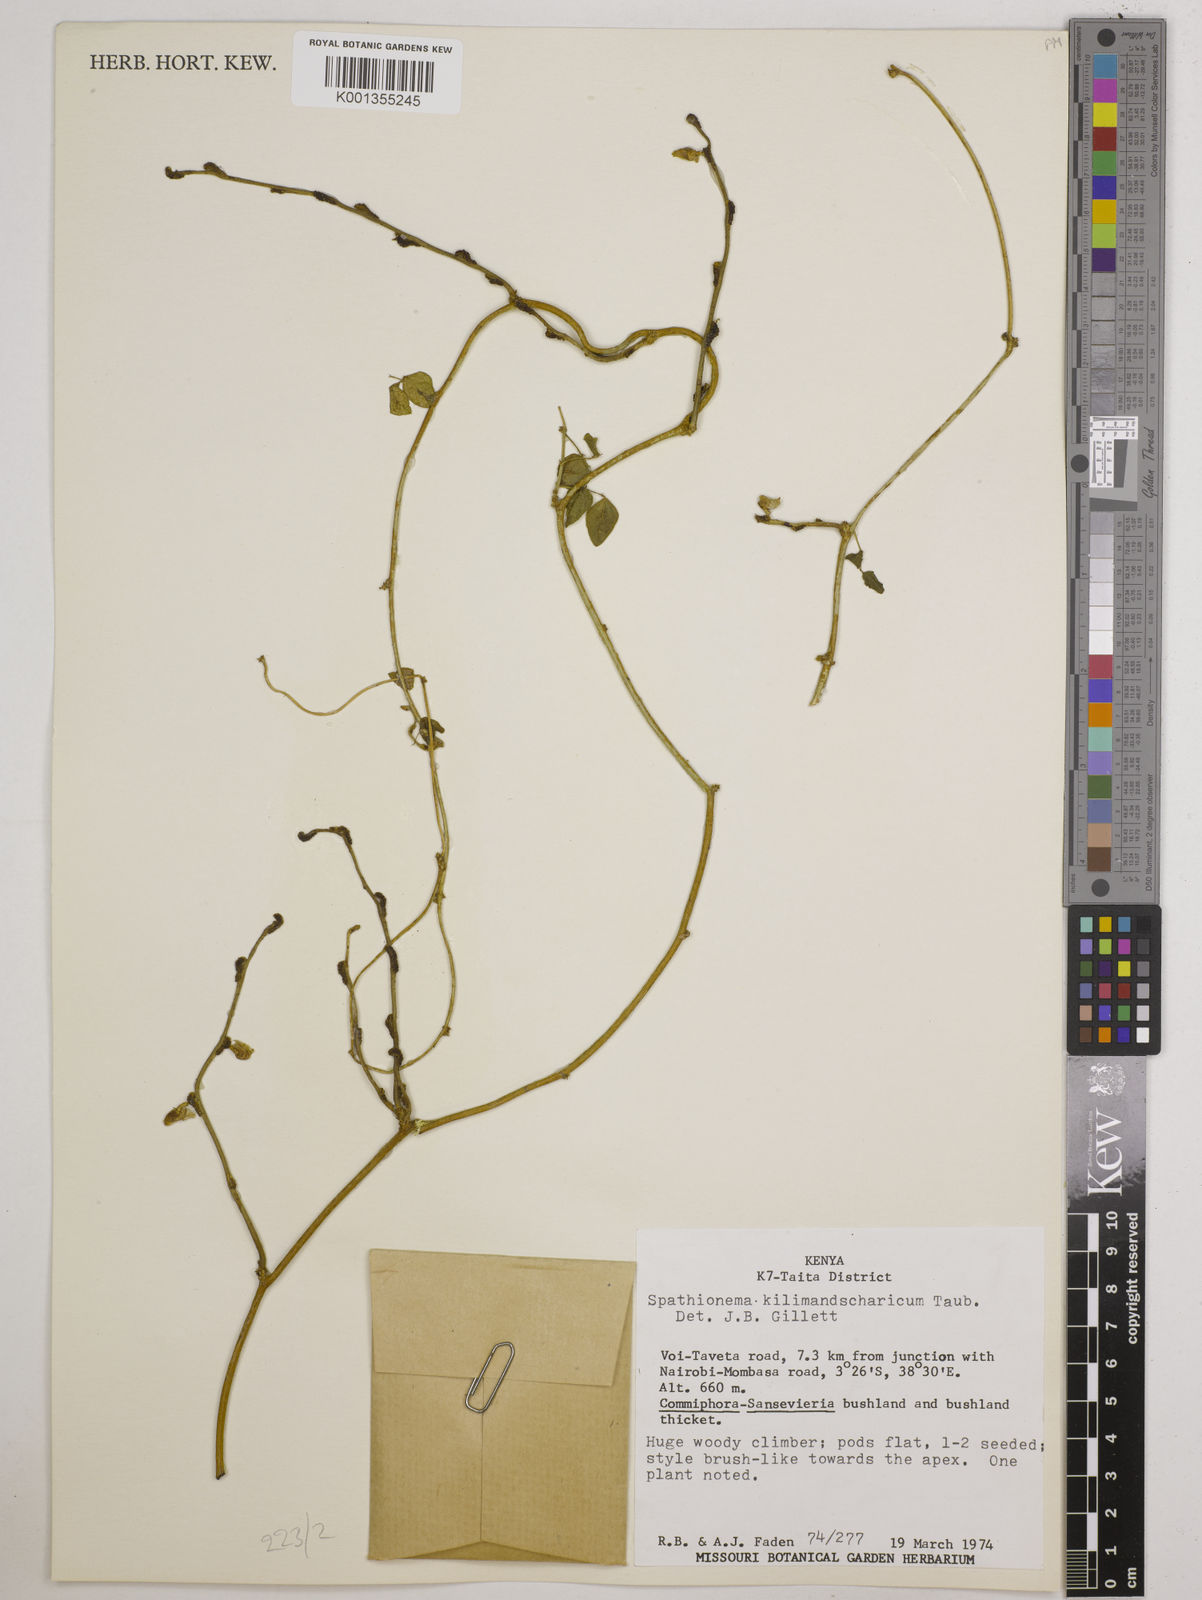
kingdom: Plantae
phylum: Tracheophyta
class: Magnoliopsida
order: Fabales
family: Fabaceae
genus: Spathionema
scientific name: Spathionema kilimandscharicum
